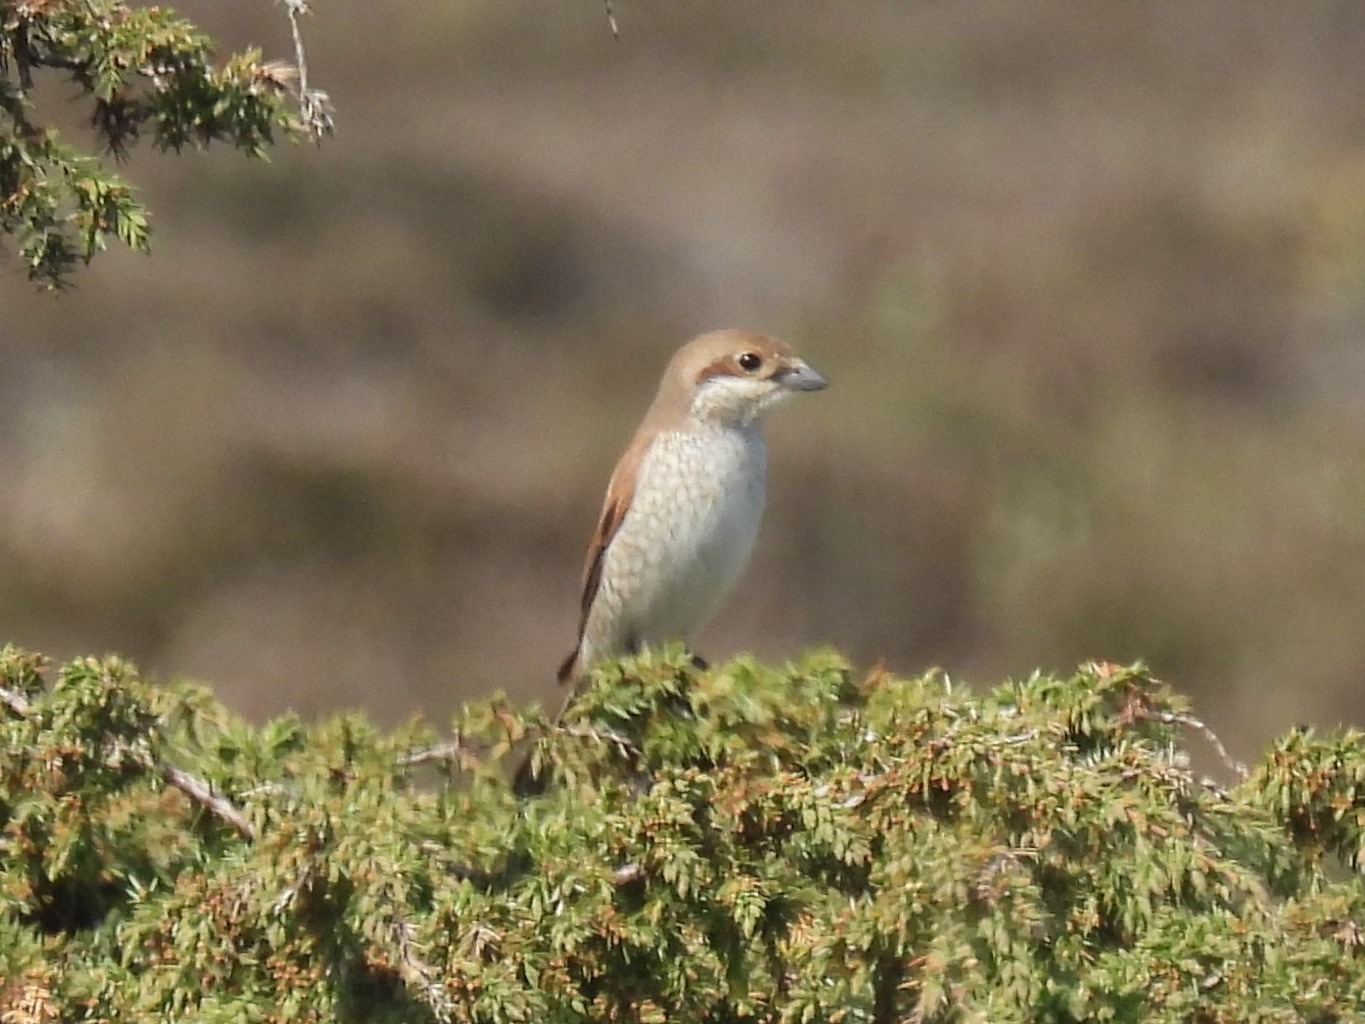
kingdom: Animalia
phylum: Chordata
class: Aves
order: Passeriformes
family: Laniidae
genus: Lanius
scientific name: Lanius collurio
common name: Rødrygget tornskade
